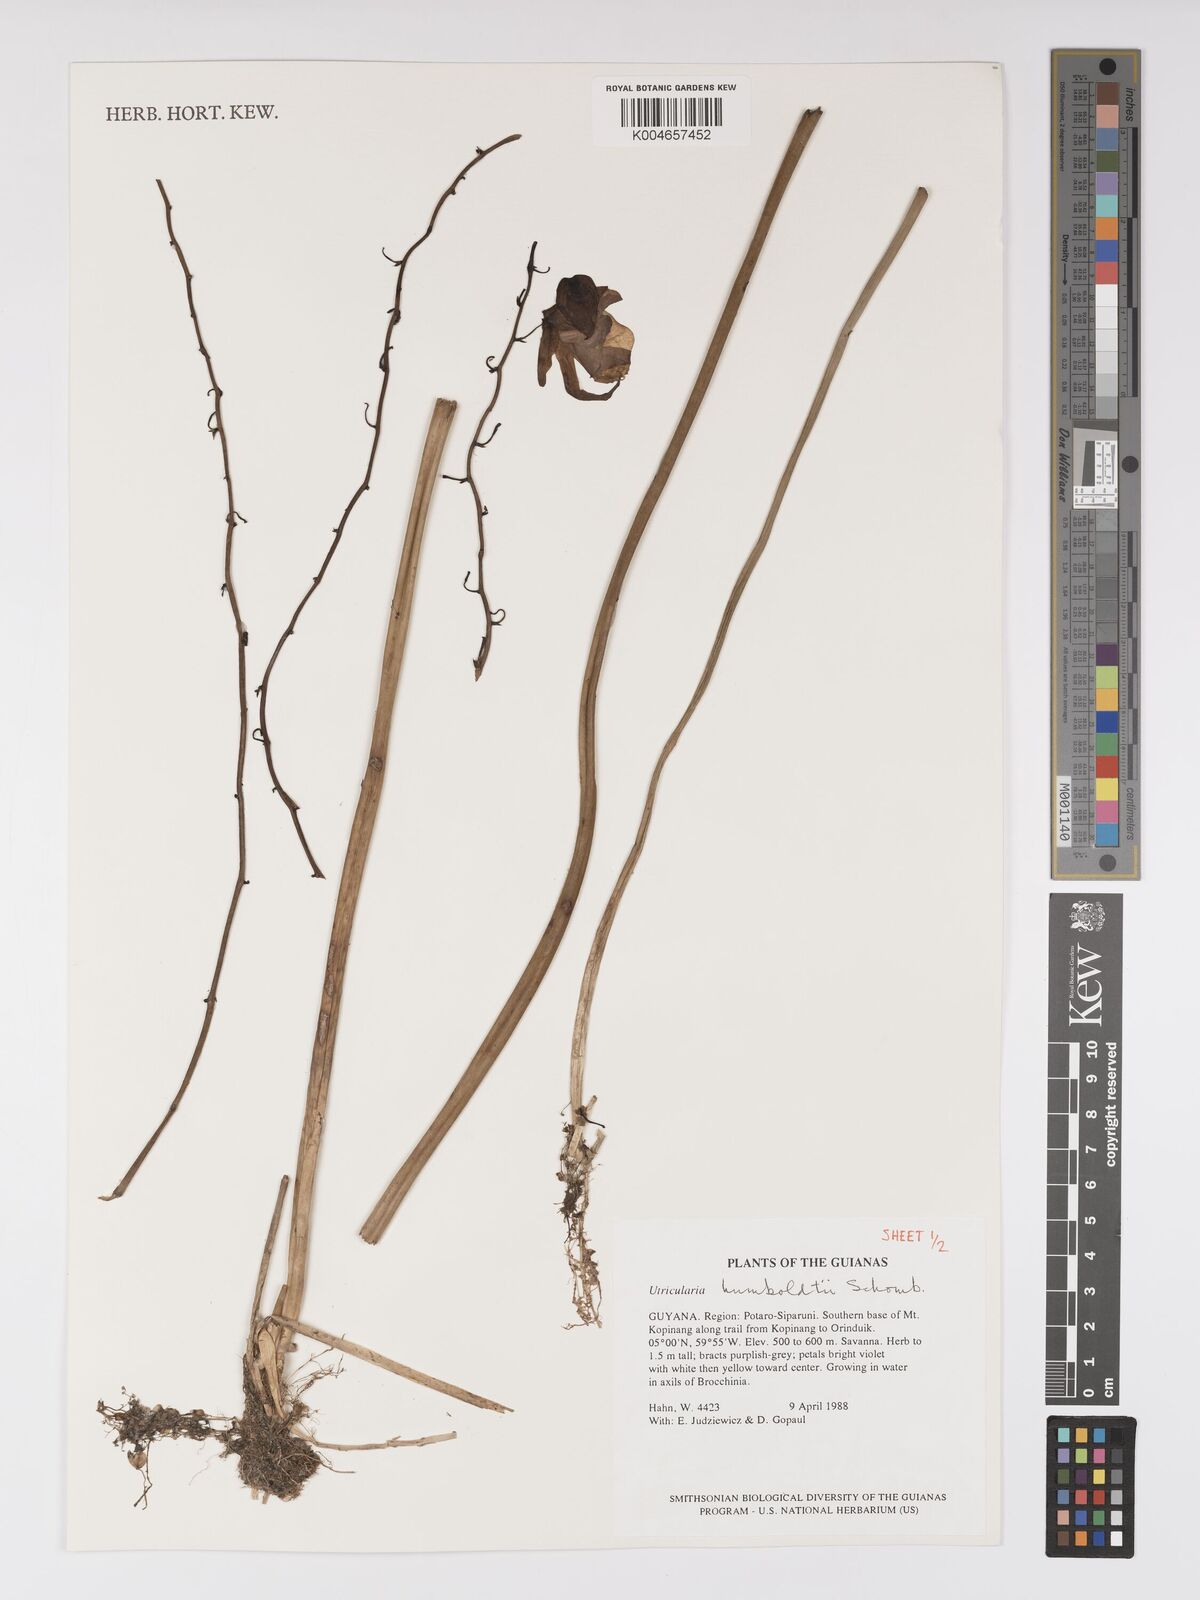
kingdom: Plantae
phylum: Tracheophyta
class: Magnoliopsida
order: Lamiales
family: Lentibulariaceae
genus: Utricularia
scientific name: Utricularia humboldtii
